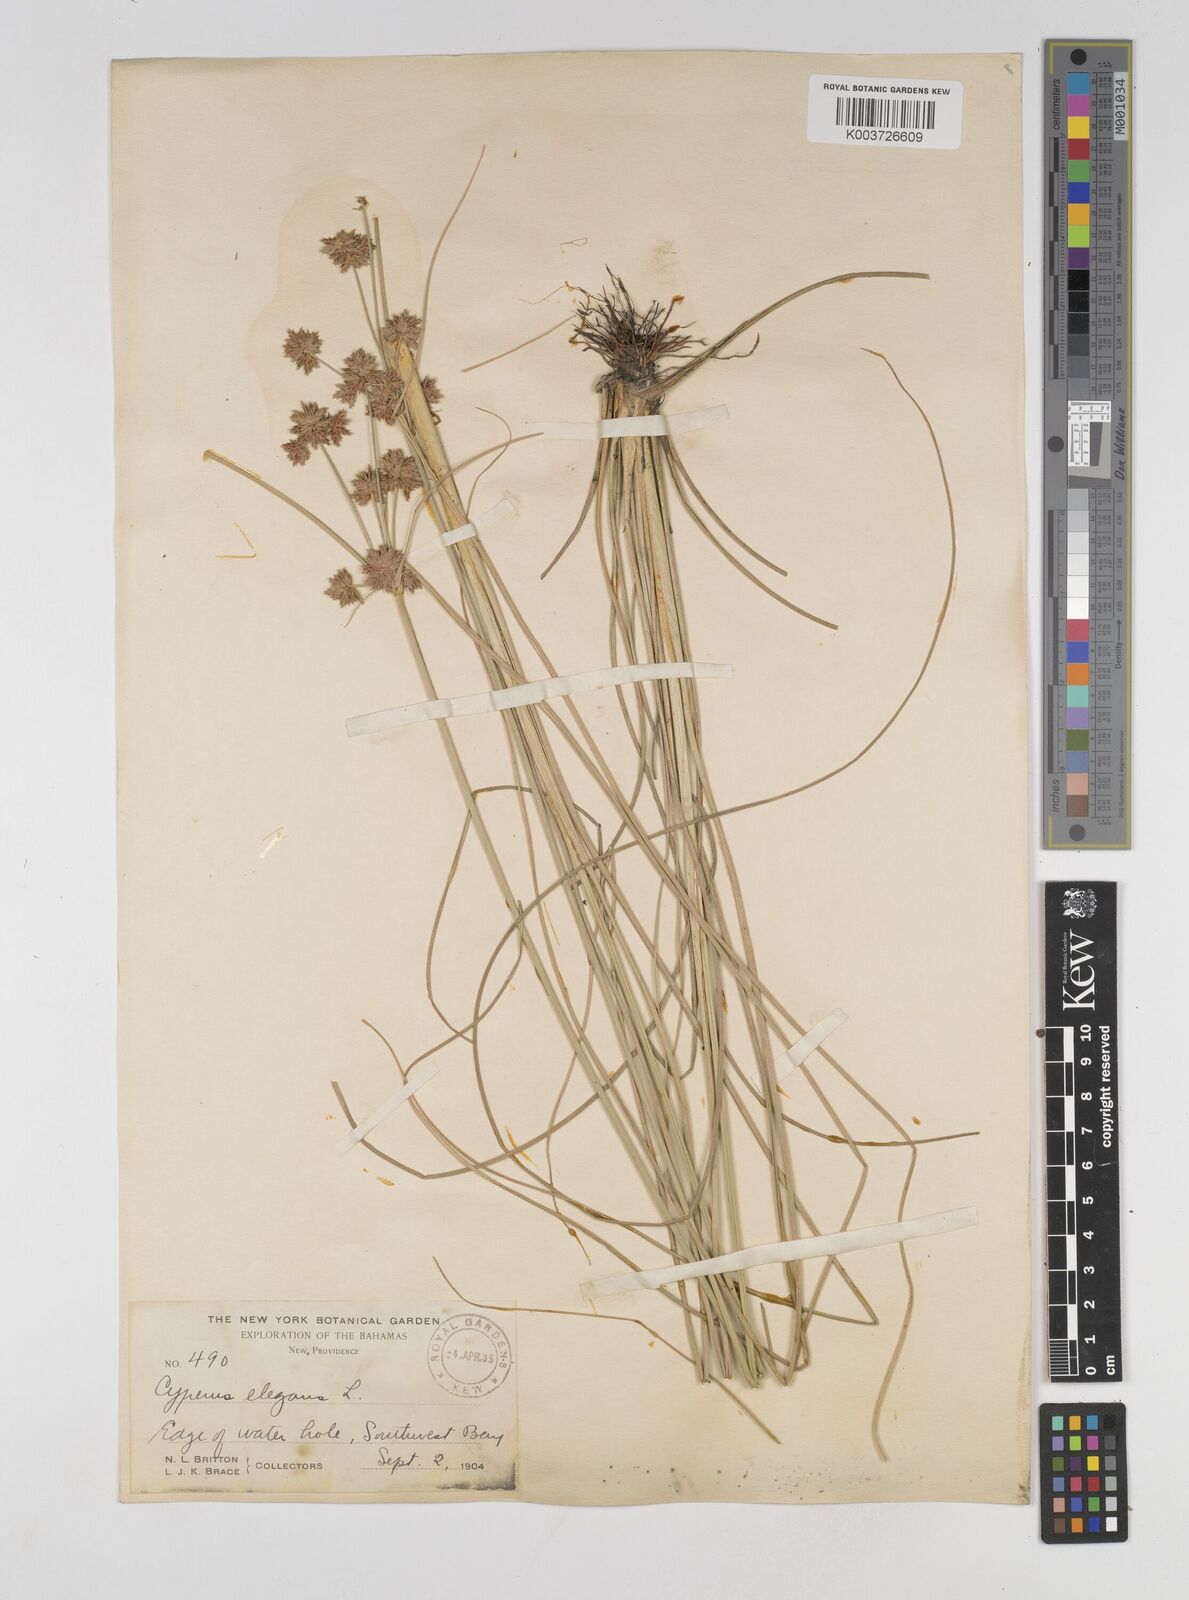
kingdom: Plantae
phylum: Tracheophyta
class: Liliopsida
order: Poales
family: Cyperaceae
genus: Cyperus
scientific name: Cyperus elegans
